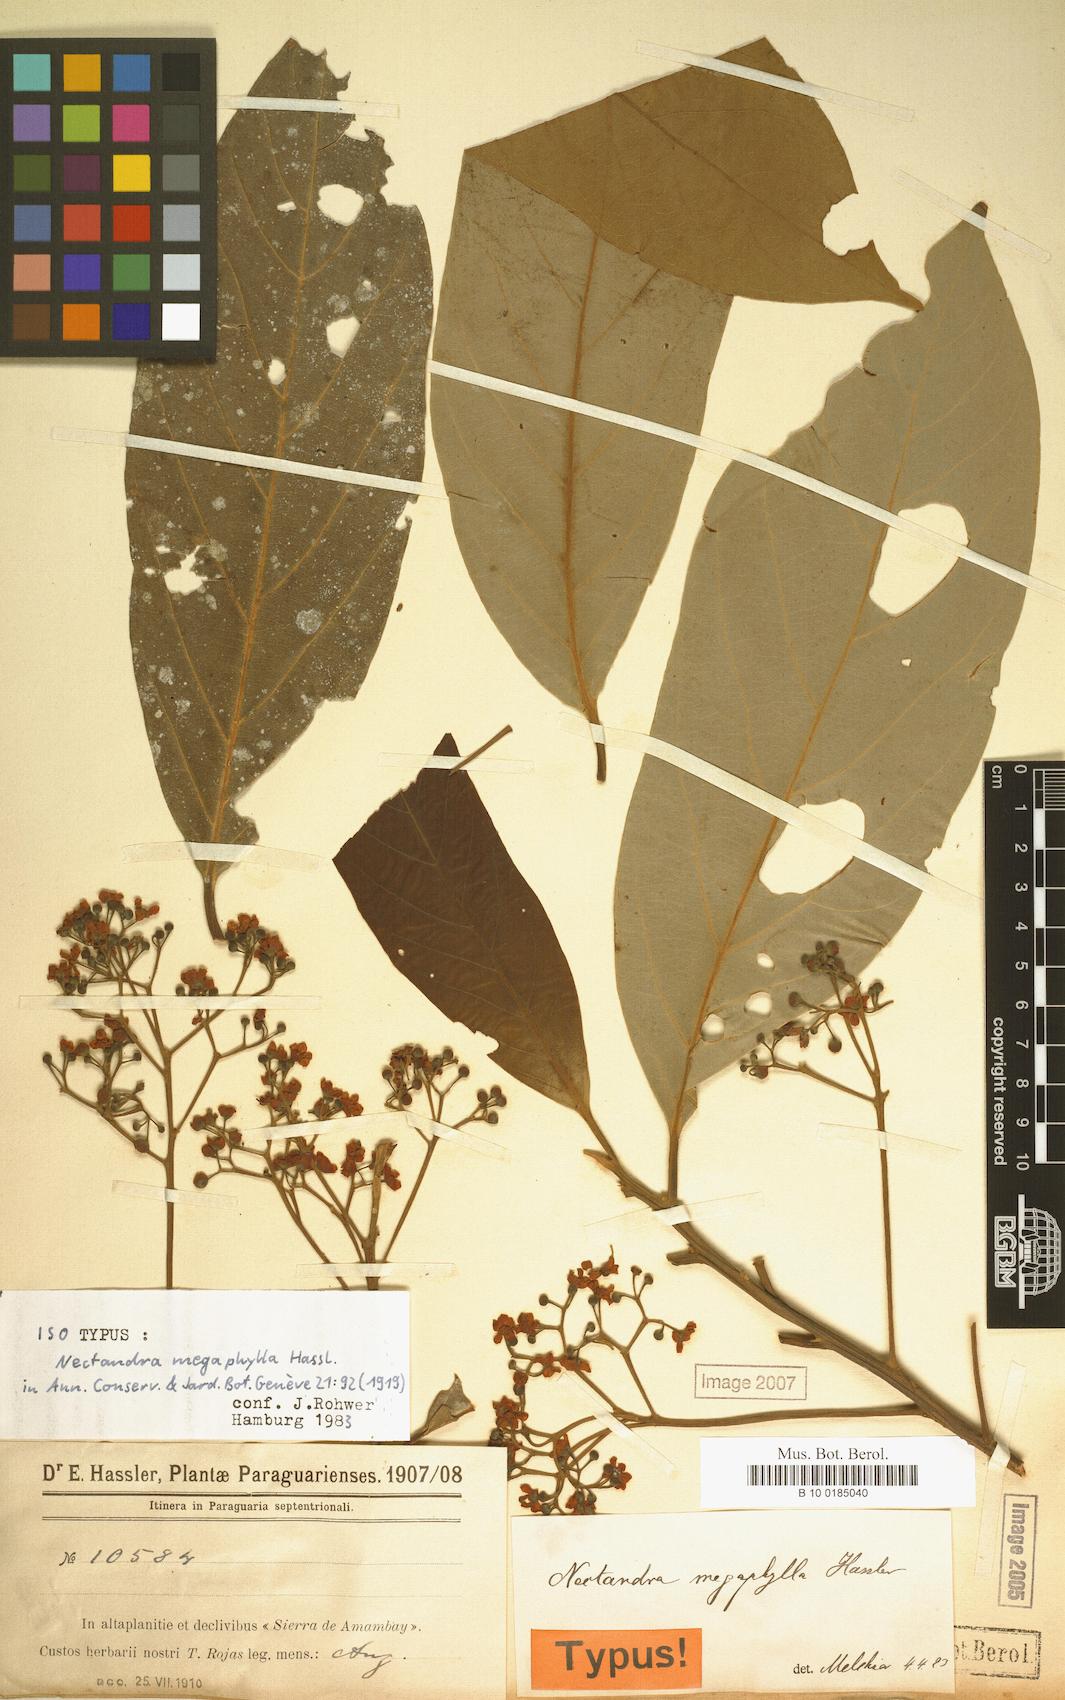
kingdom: Plantae
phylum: Tracheophyta
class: Magnoliopsida
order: Laurales
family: Lauraceae
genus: Nectandra
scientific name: Nectandra hihua
